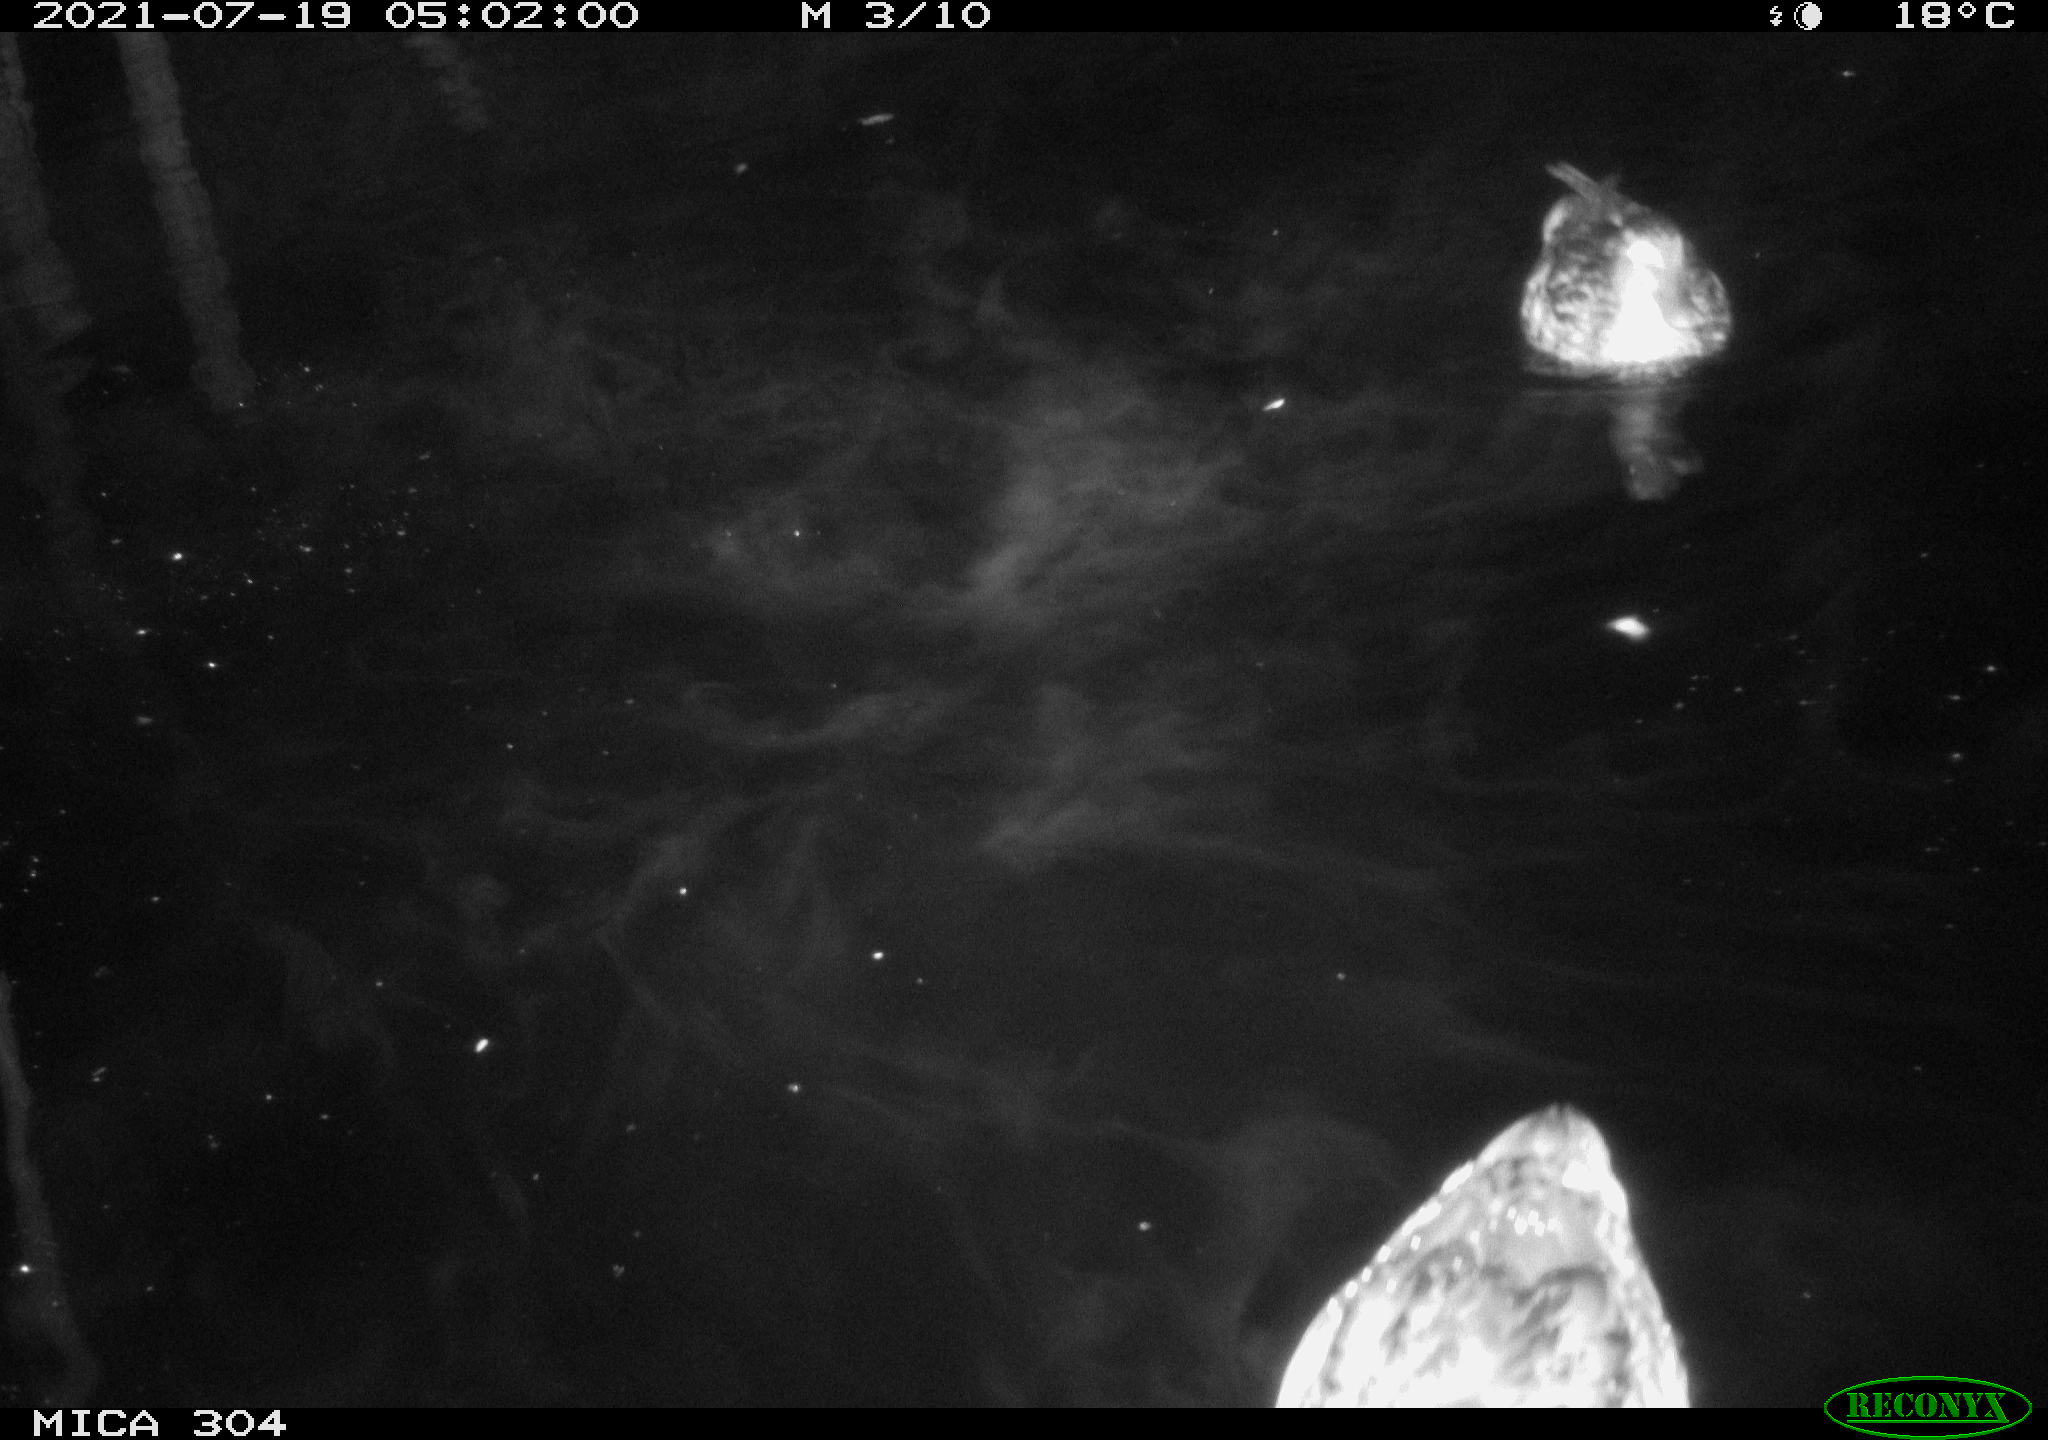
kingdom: Animalia
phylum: Chordata
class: Aves
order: Anseriformes
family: Anatidae
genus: Anas
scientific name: Anas platyrhynchos
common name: Mallard
